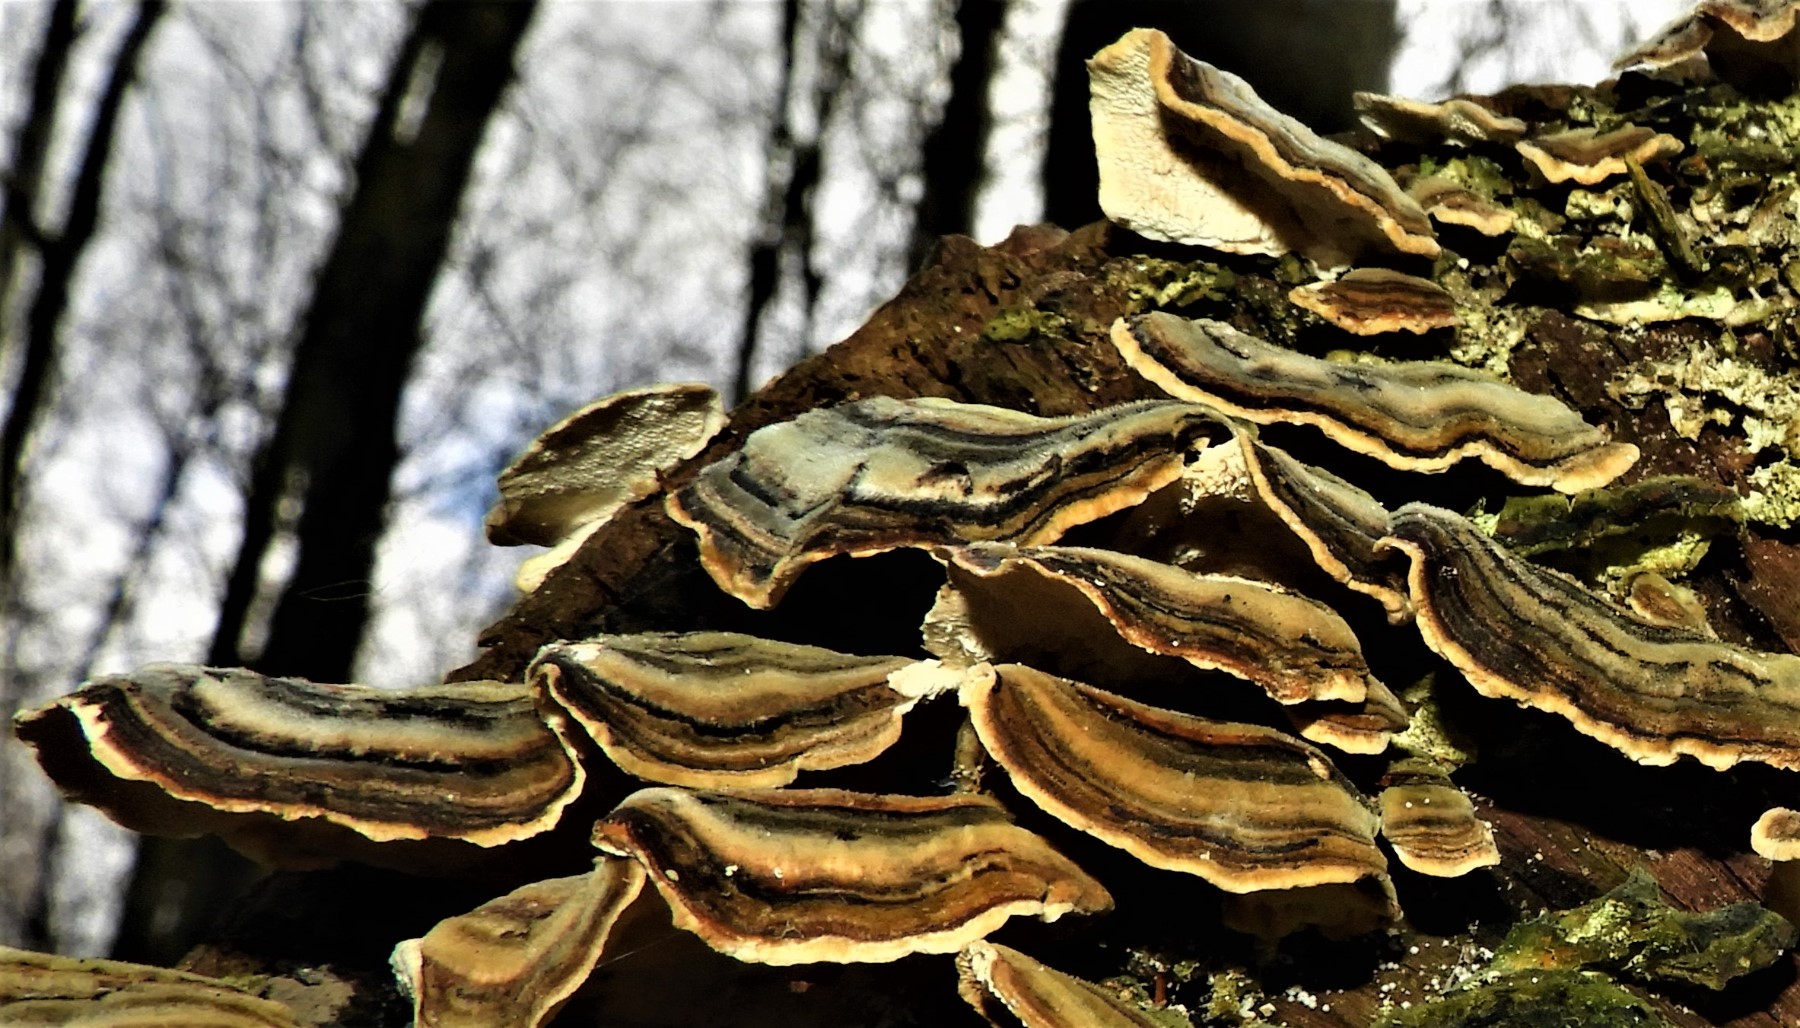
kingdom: Fungi
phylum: Basidiomycota
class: Agaricomycetes
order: Polyporales
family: Polyporaceae
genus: Trametes
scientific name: Trametes versicolor
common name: broget læderporesvamp
